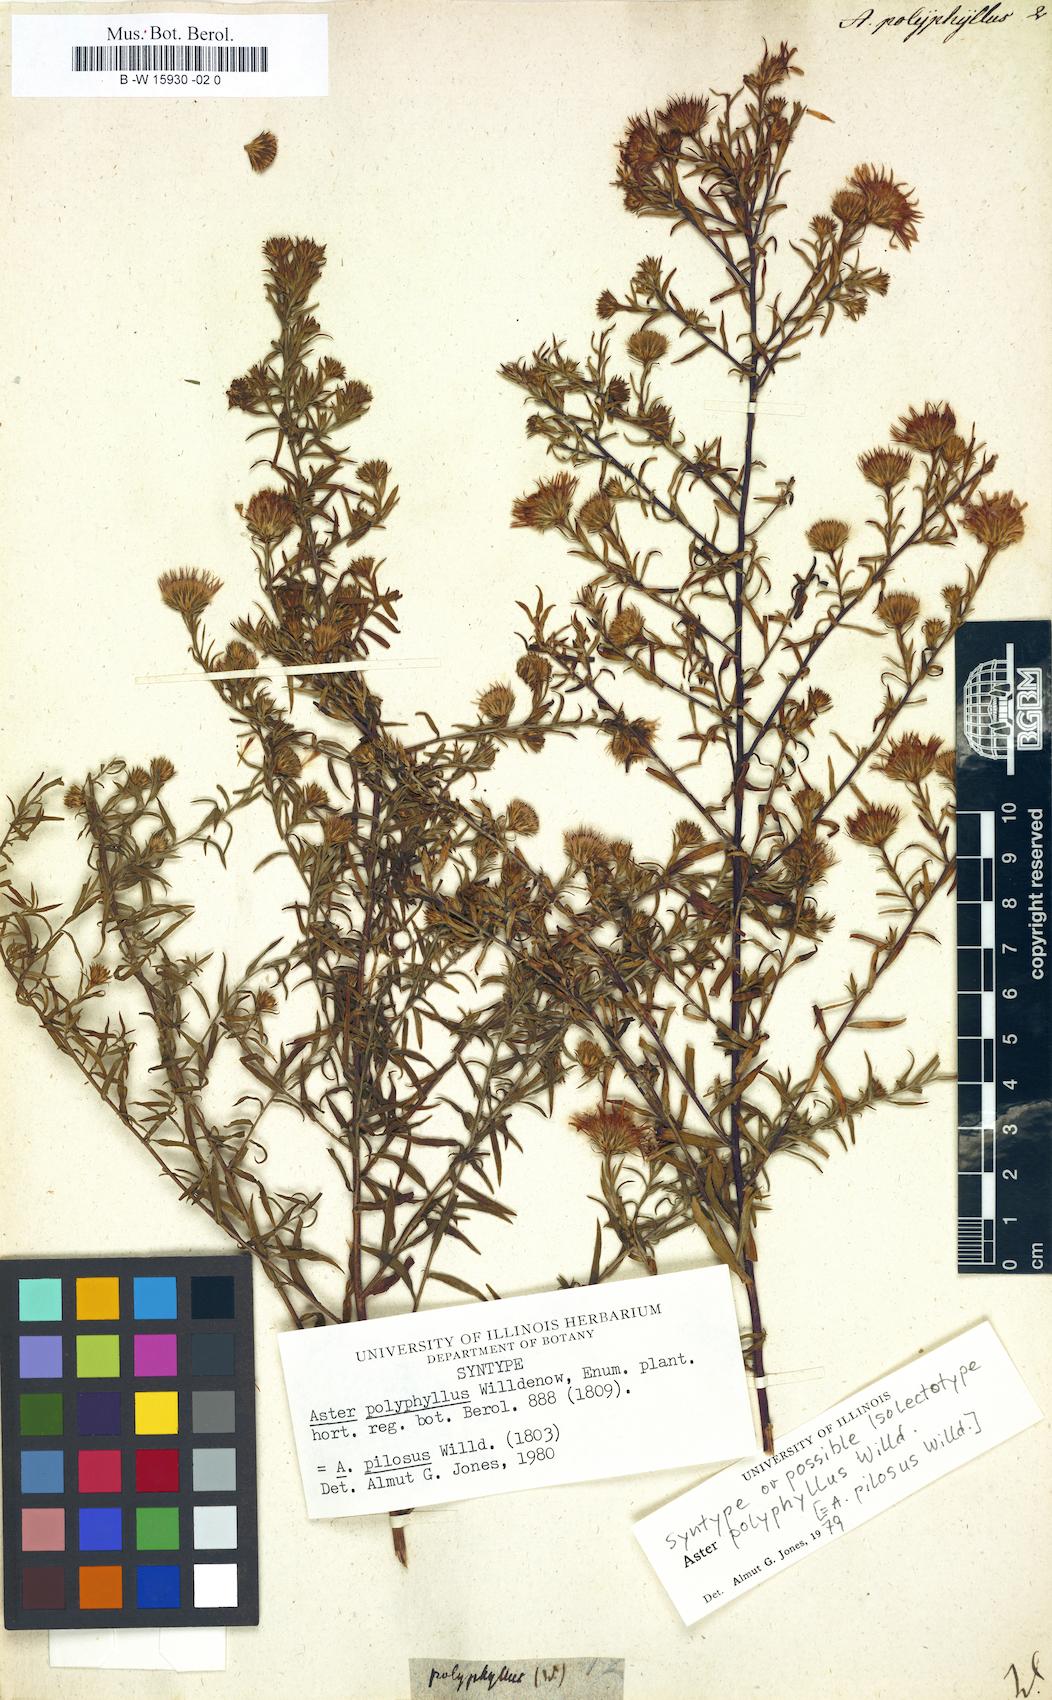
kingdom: Plantae
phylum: Tracheophyta
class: Magnoliopsida
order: Asterales
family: Asteraceae
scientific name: Asteraceae
